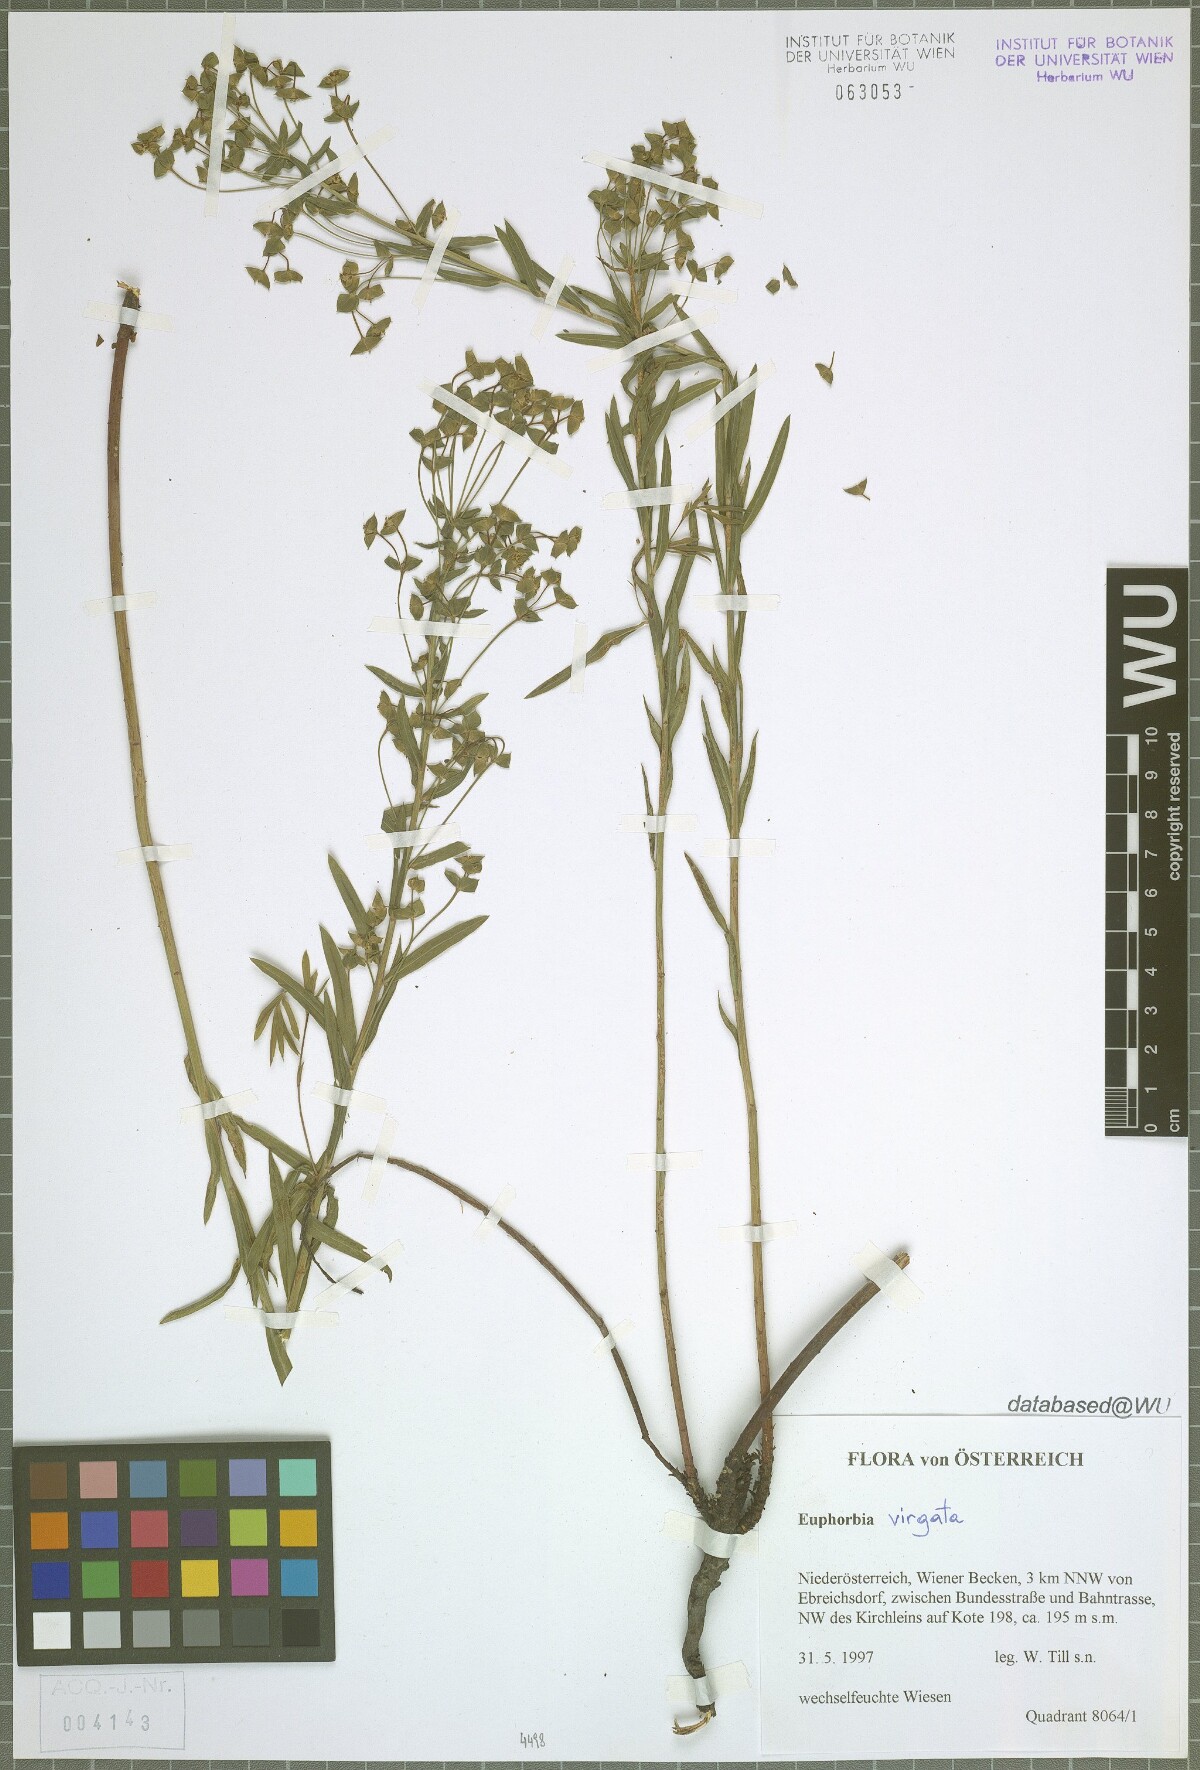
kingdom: Plantae
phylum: Tracheophyta
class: Magnoliopsida
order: Malpighiales
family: Euphorbiaceae
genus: Euphorbia
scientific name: Euphorbia virgata
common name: Leafy spurge
